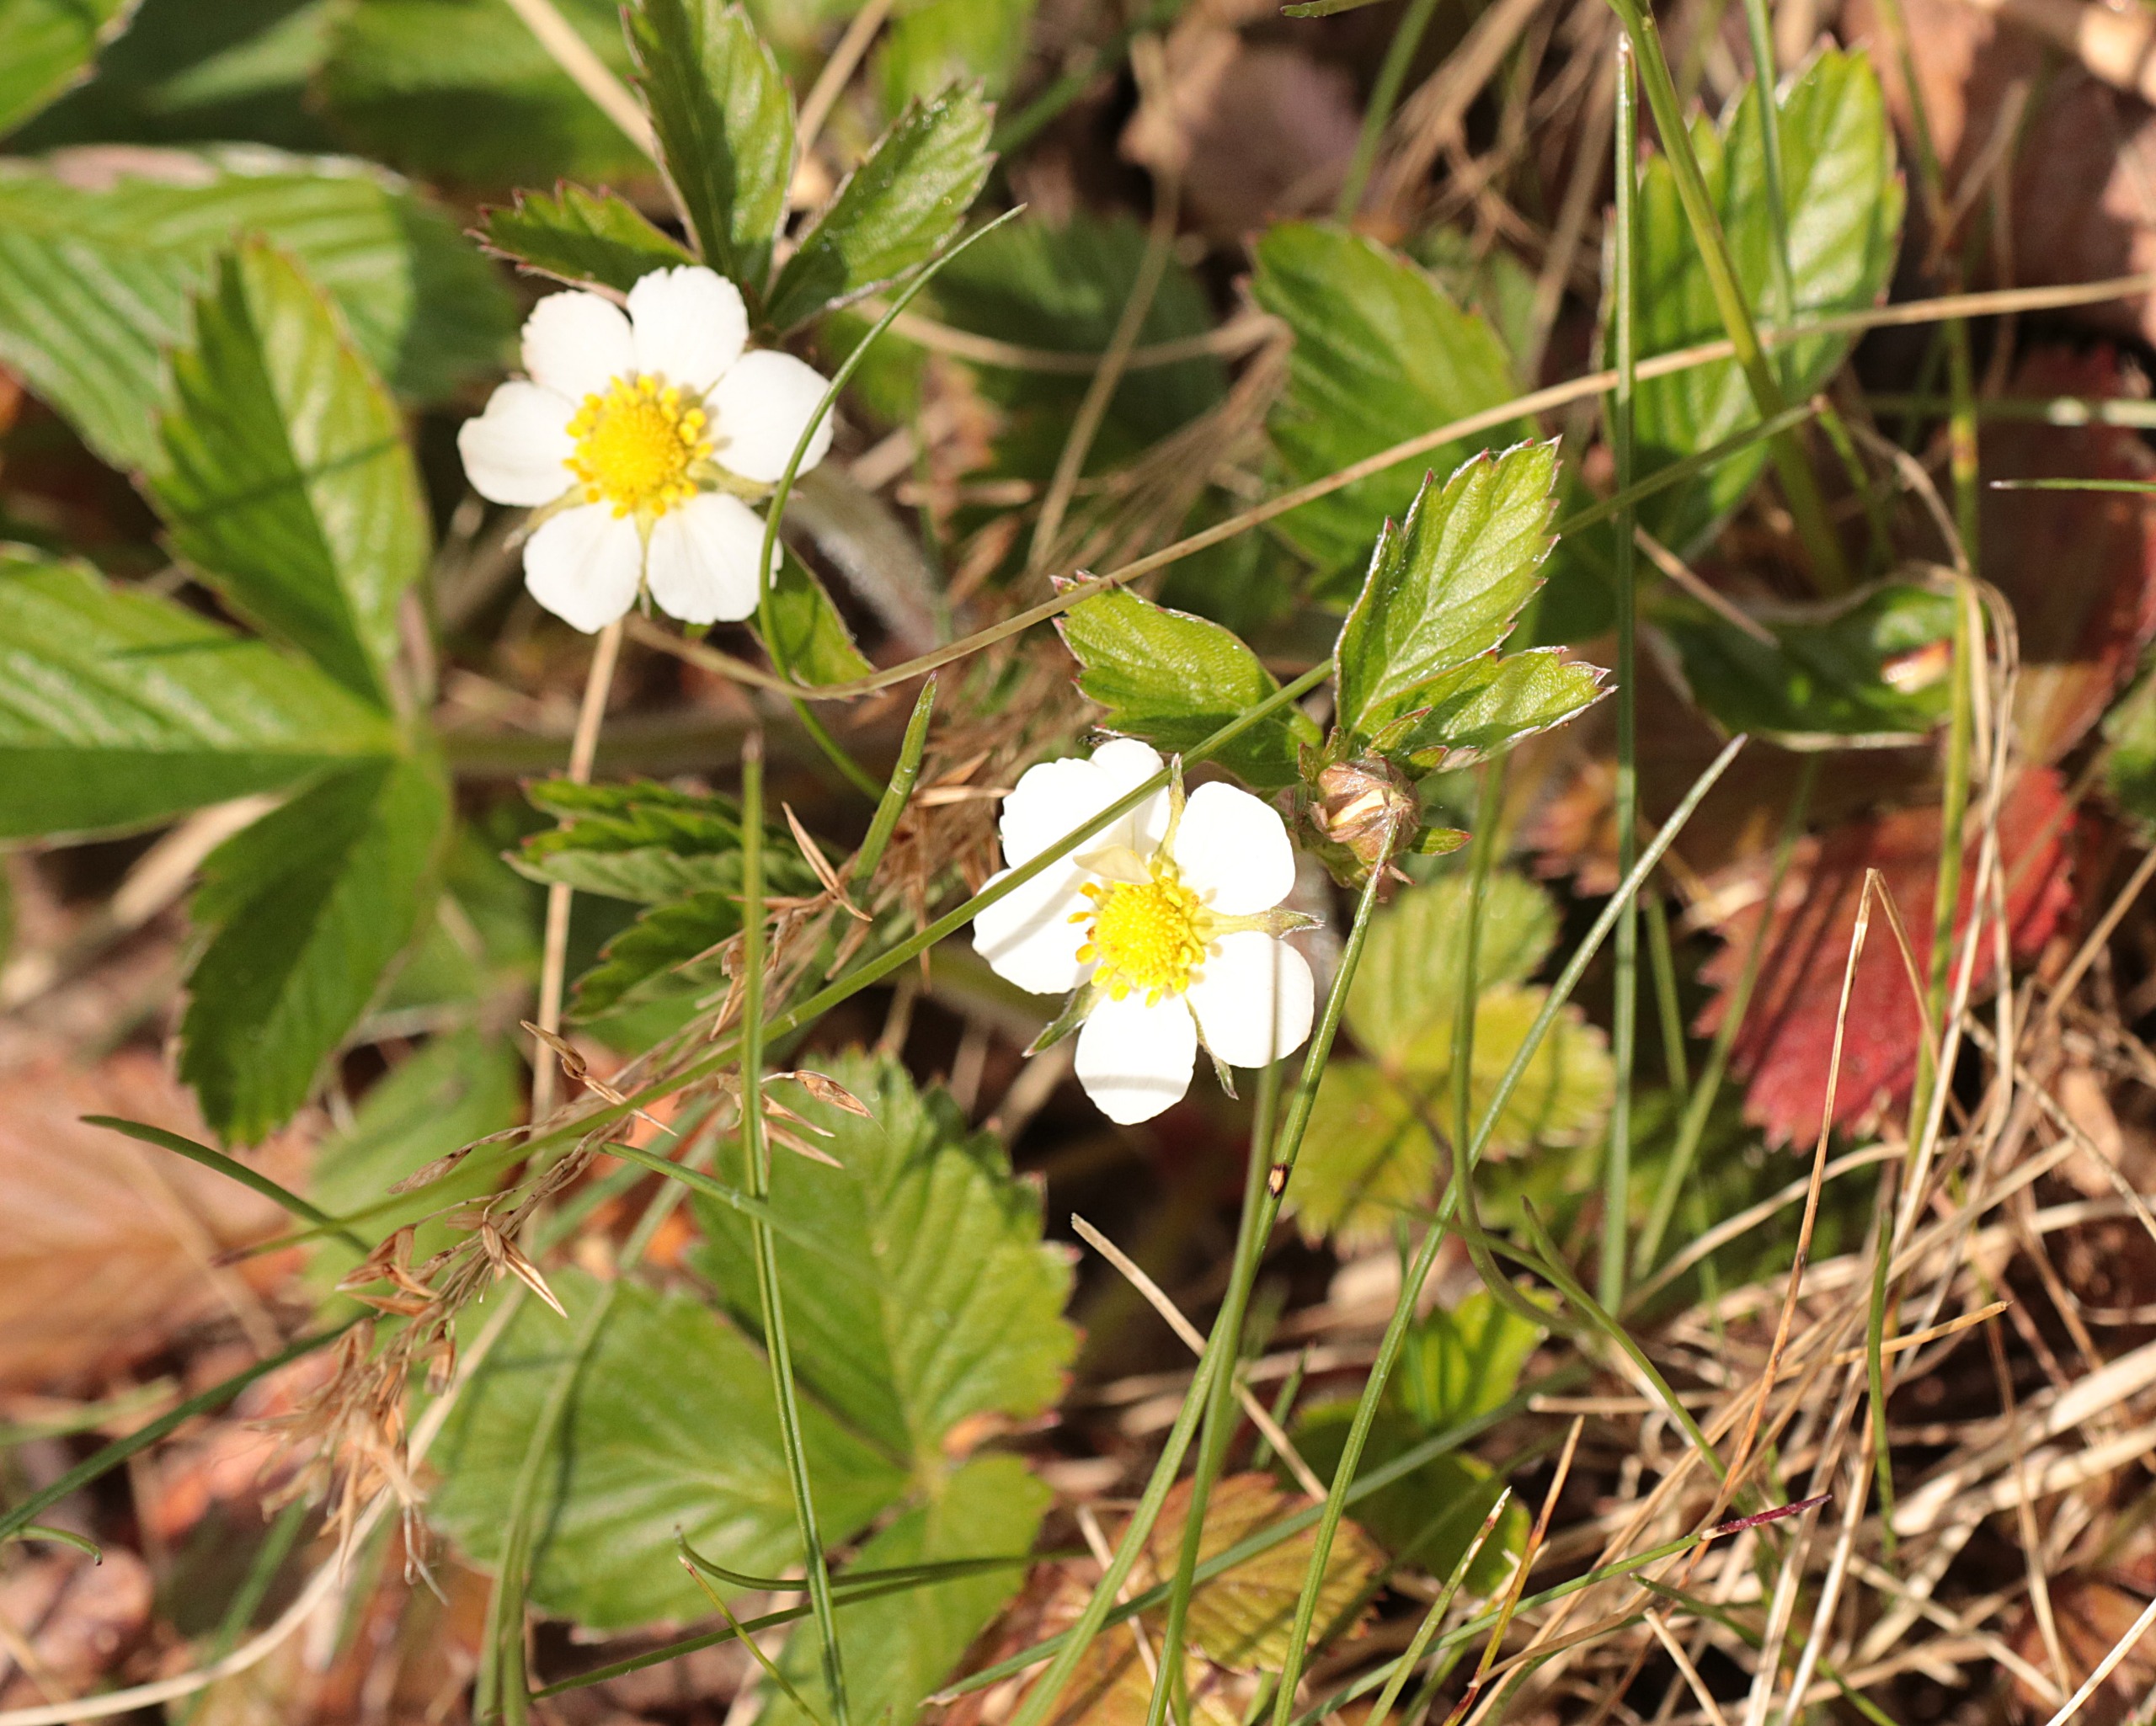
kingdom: Plantae
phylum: Tracheophyta
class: Magnoliopsida
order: Rosales
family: Rosaceae
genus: Fragaria
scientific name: Fragaria vesca
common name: Skov-jordbær
